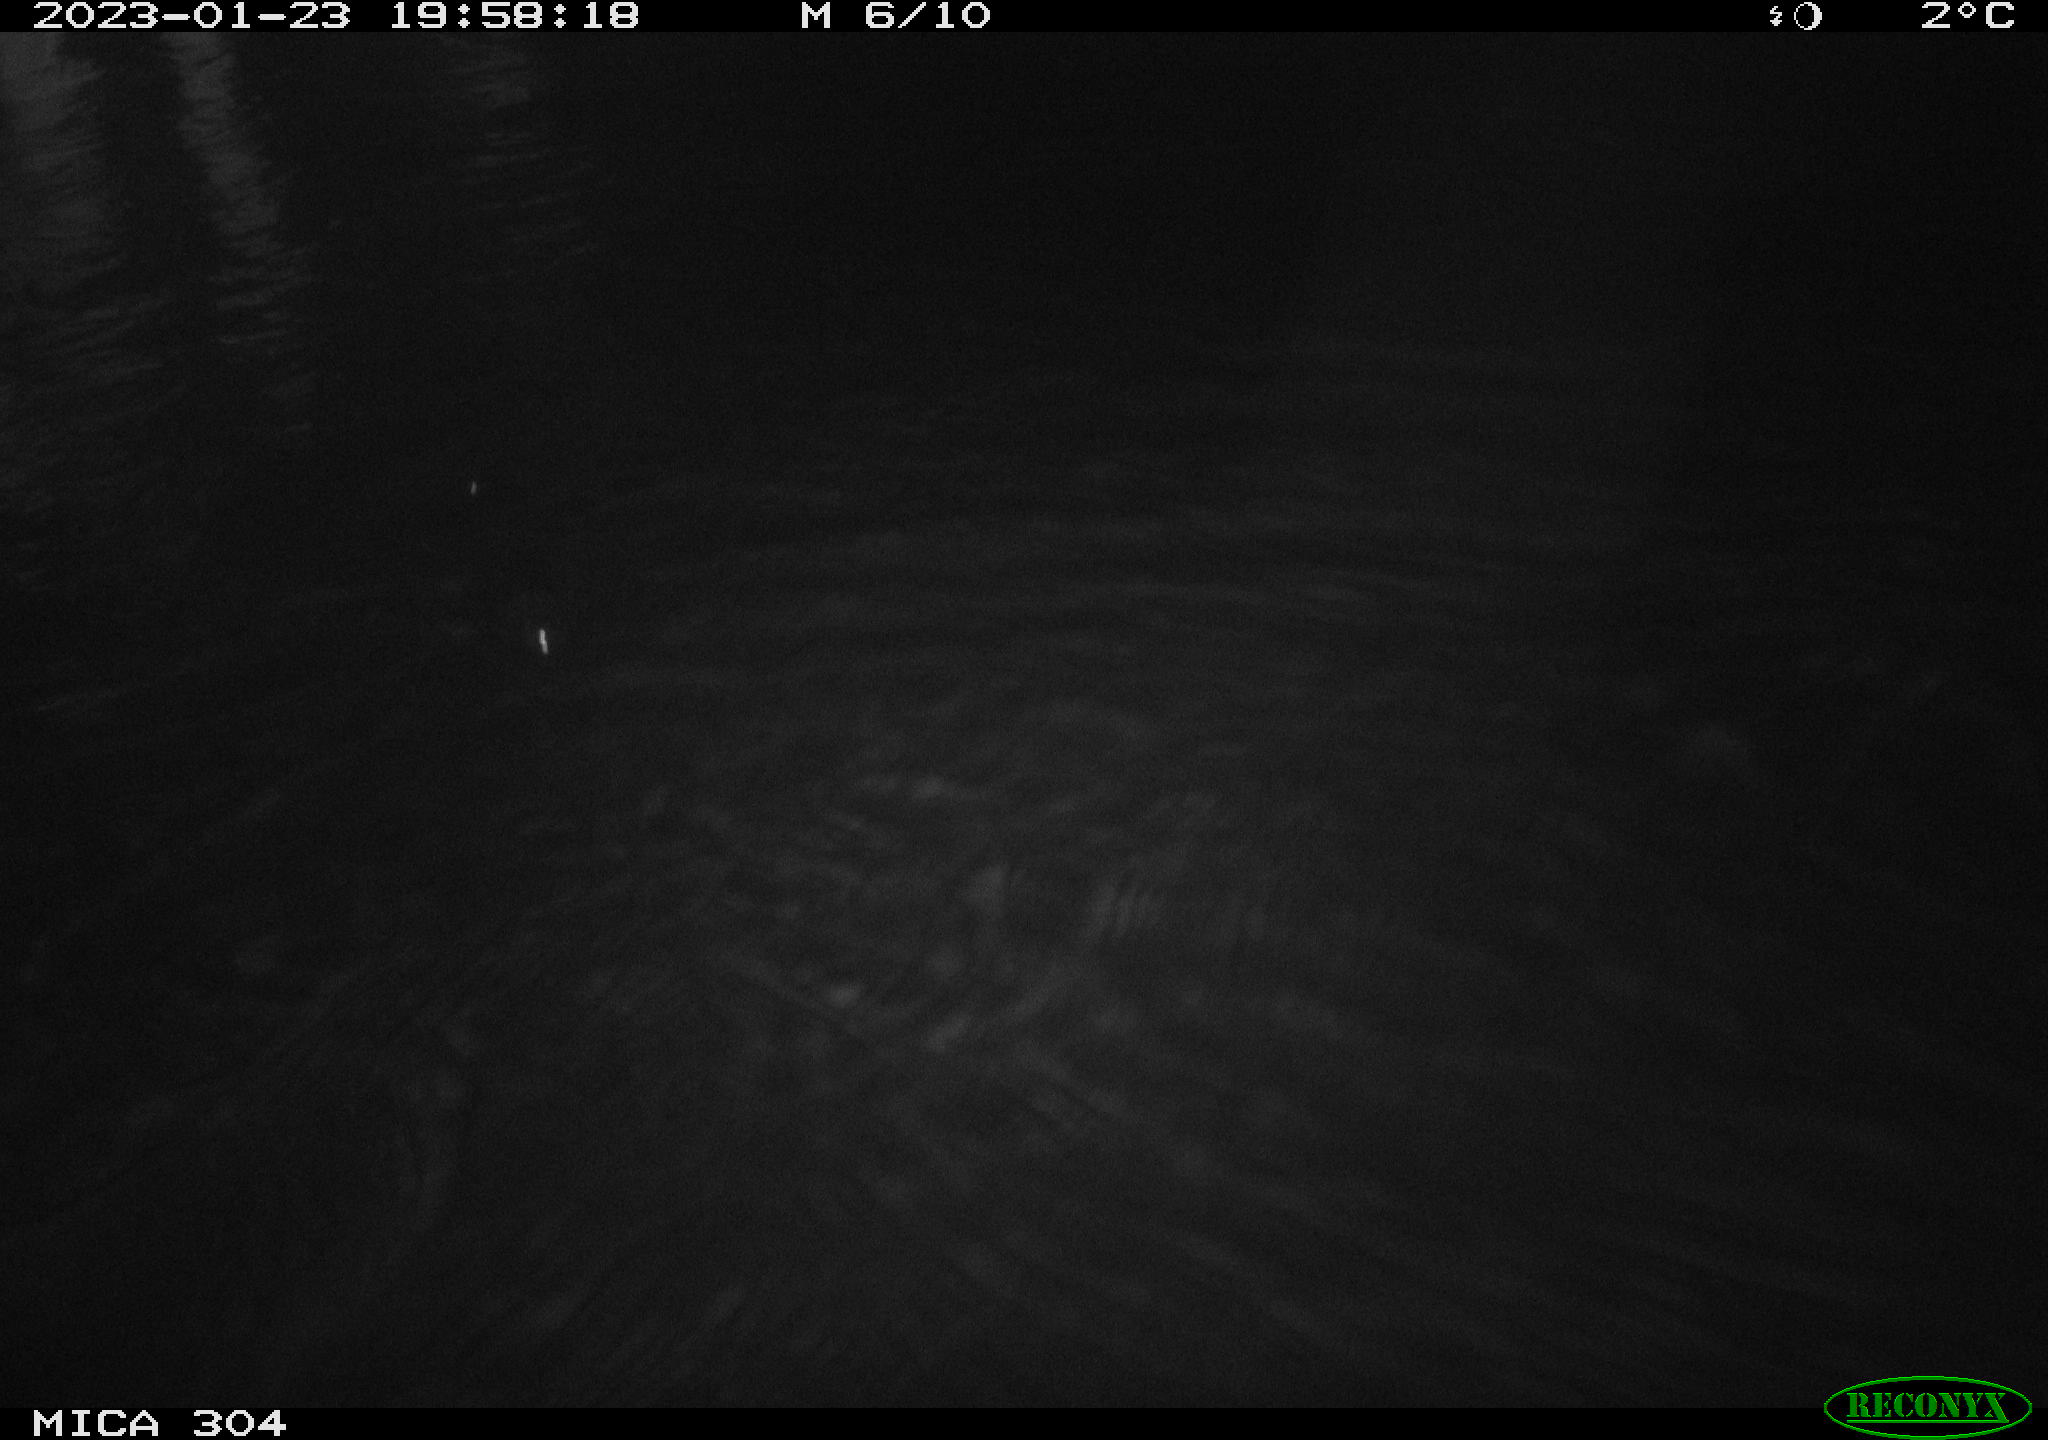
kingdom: Animalia
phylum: Chordata
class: Mammalia
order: Rodentia
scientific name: Rodentia
